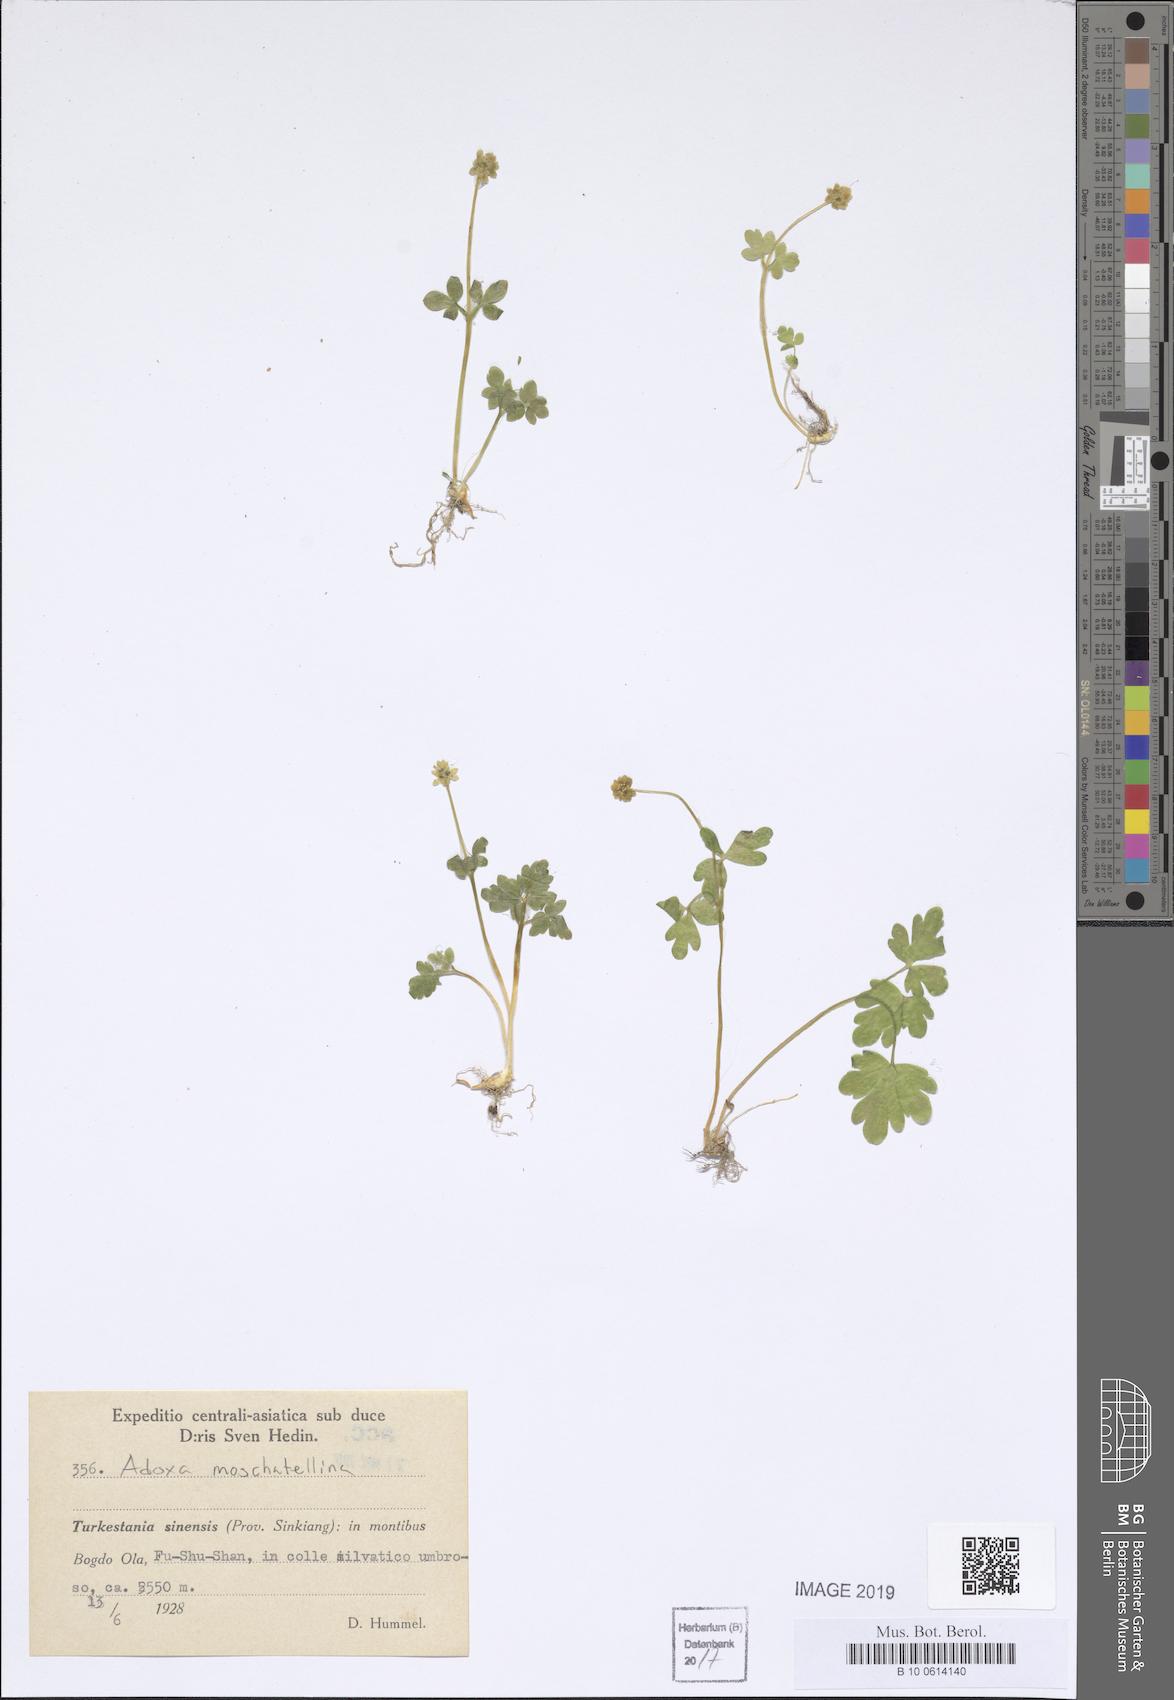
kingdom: Plantae
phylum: Tracheophyta
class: Magnoliopsida
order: Dipsacales
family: Viburnaceae
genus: Adoxa
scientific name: Adoxa moschatellina
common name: Moschatel
